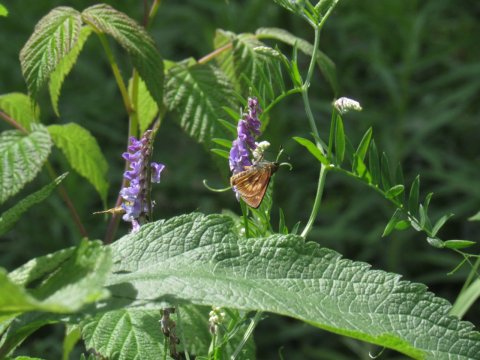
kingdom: Animalia
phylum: Arthropoda
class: Insecta
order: Lepidoptera
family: Hesperiidae
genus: Polites
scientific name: Polites
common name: Long Dash Skipper
